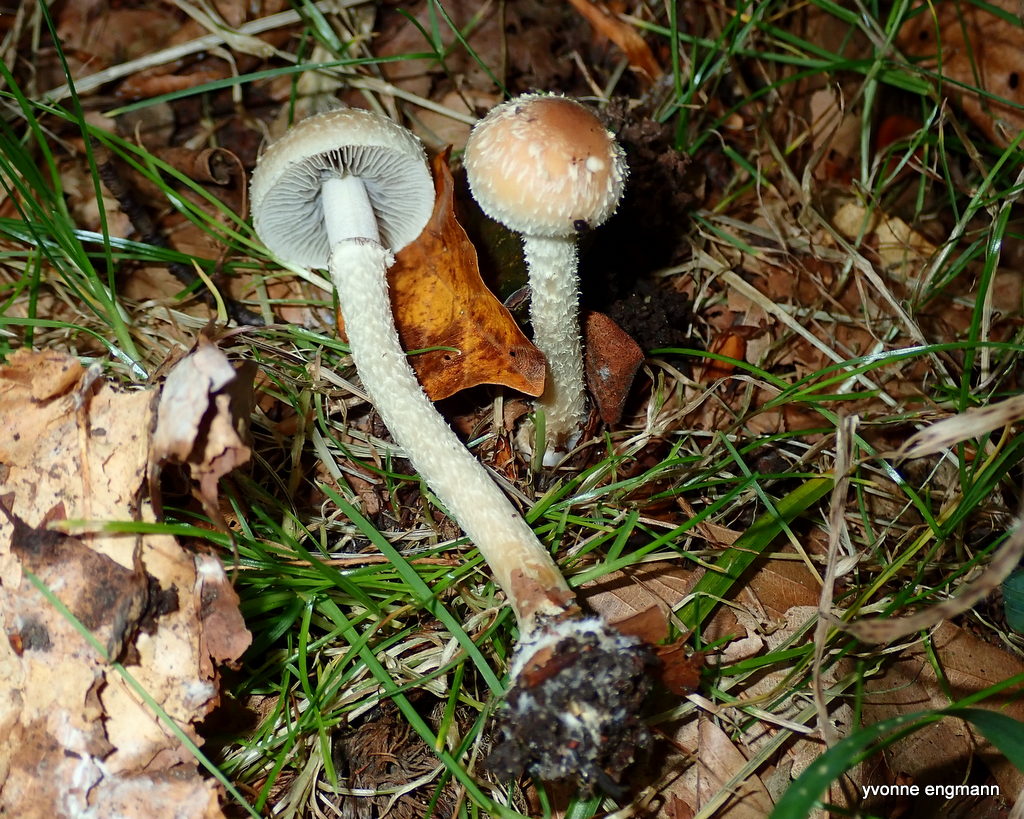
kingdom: Fungi
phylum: Basidiomycota
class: Agaricomycetes
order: Agaricales
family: Strophariaceae
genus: Leratiomyces
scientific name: Leratiomyces squamosus
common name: skællet bredblad
